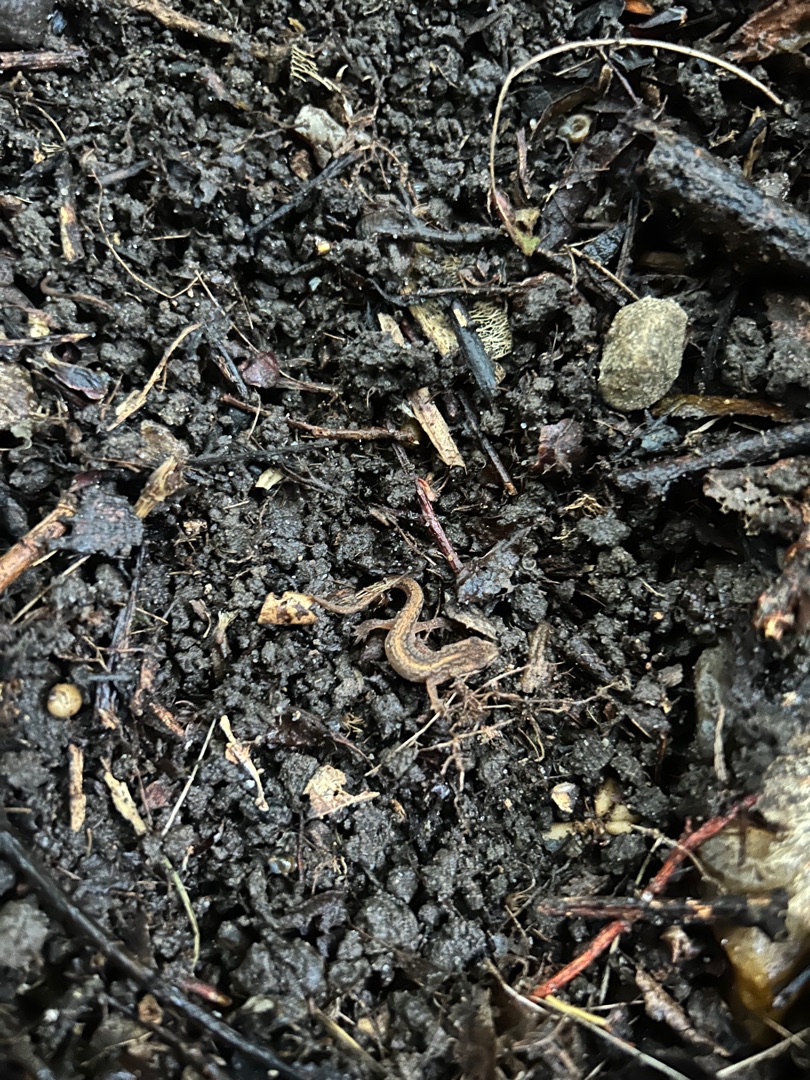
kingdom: Animalia
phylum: Chordata
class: Amphibia
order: Caudata
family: Salamandridae
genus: Lissotriton
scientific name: Lissotriton vulgaris
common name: Lille vandsalamander
